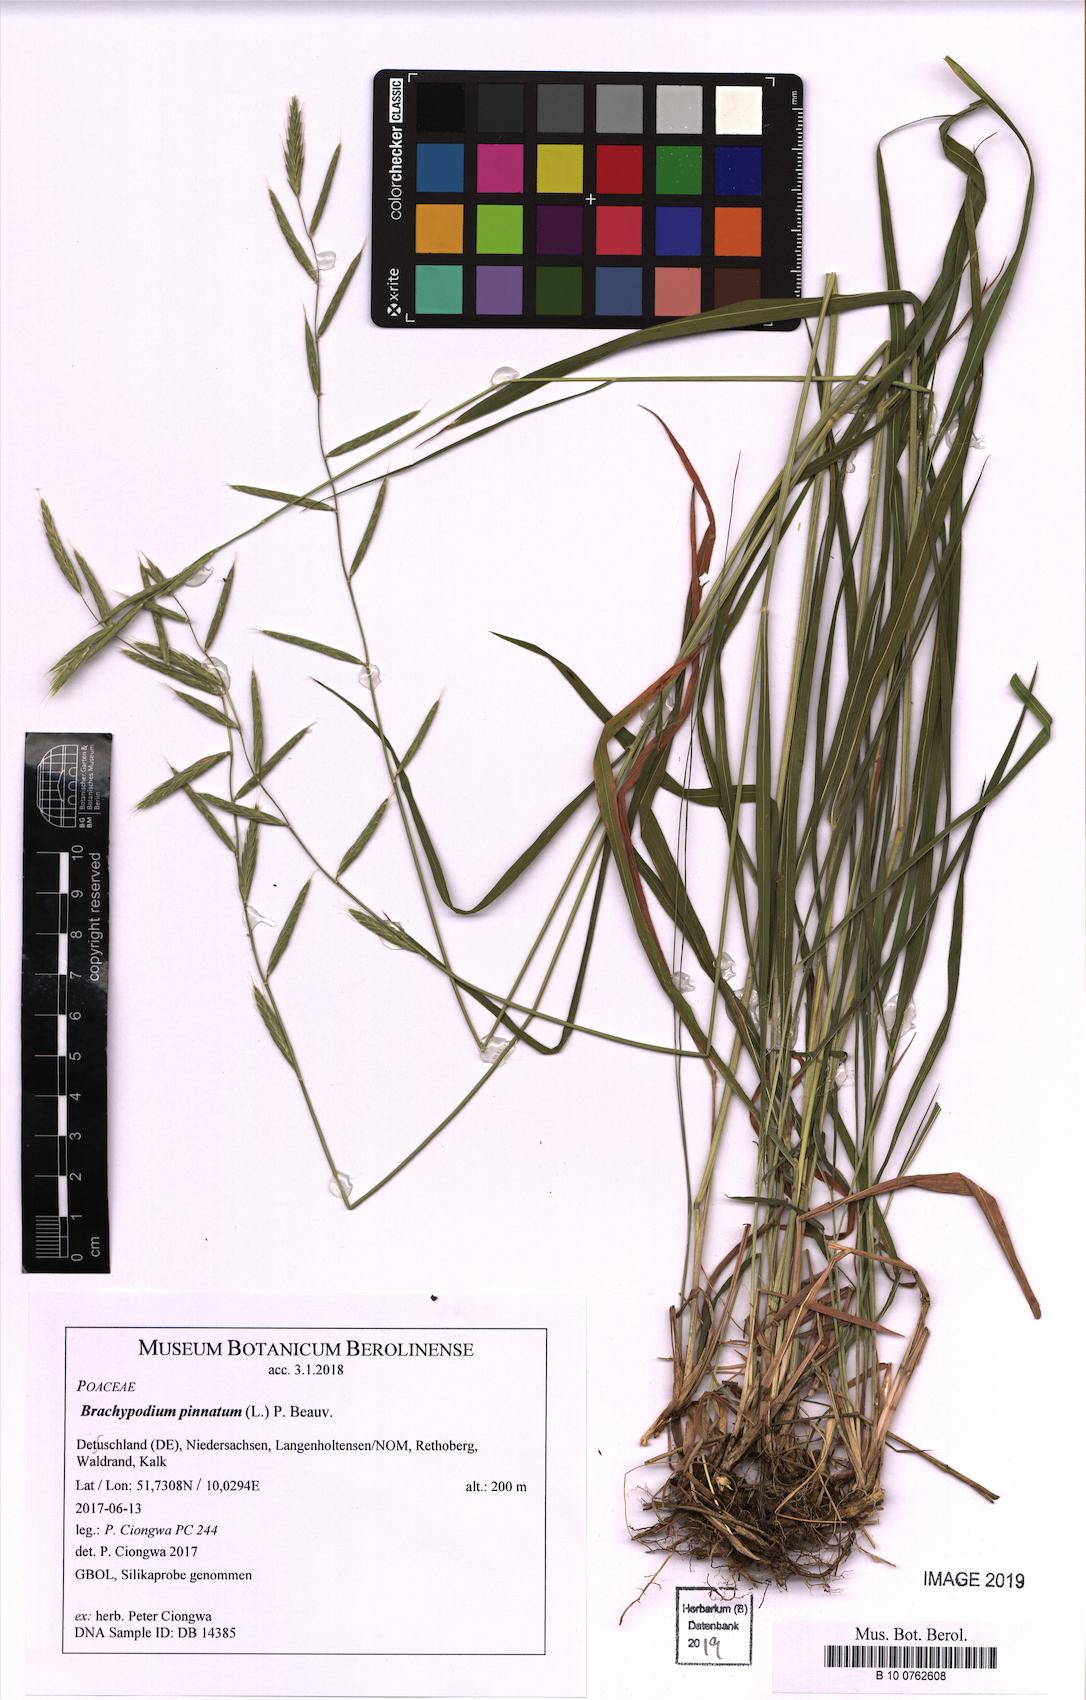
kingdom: Plantae
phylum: Tracheophyta
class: Liliopsida
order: Poales
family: Poaceae
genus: Brachypodium
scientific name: Brachypodium pinnatum
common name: Tor grass
